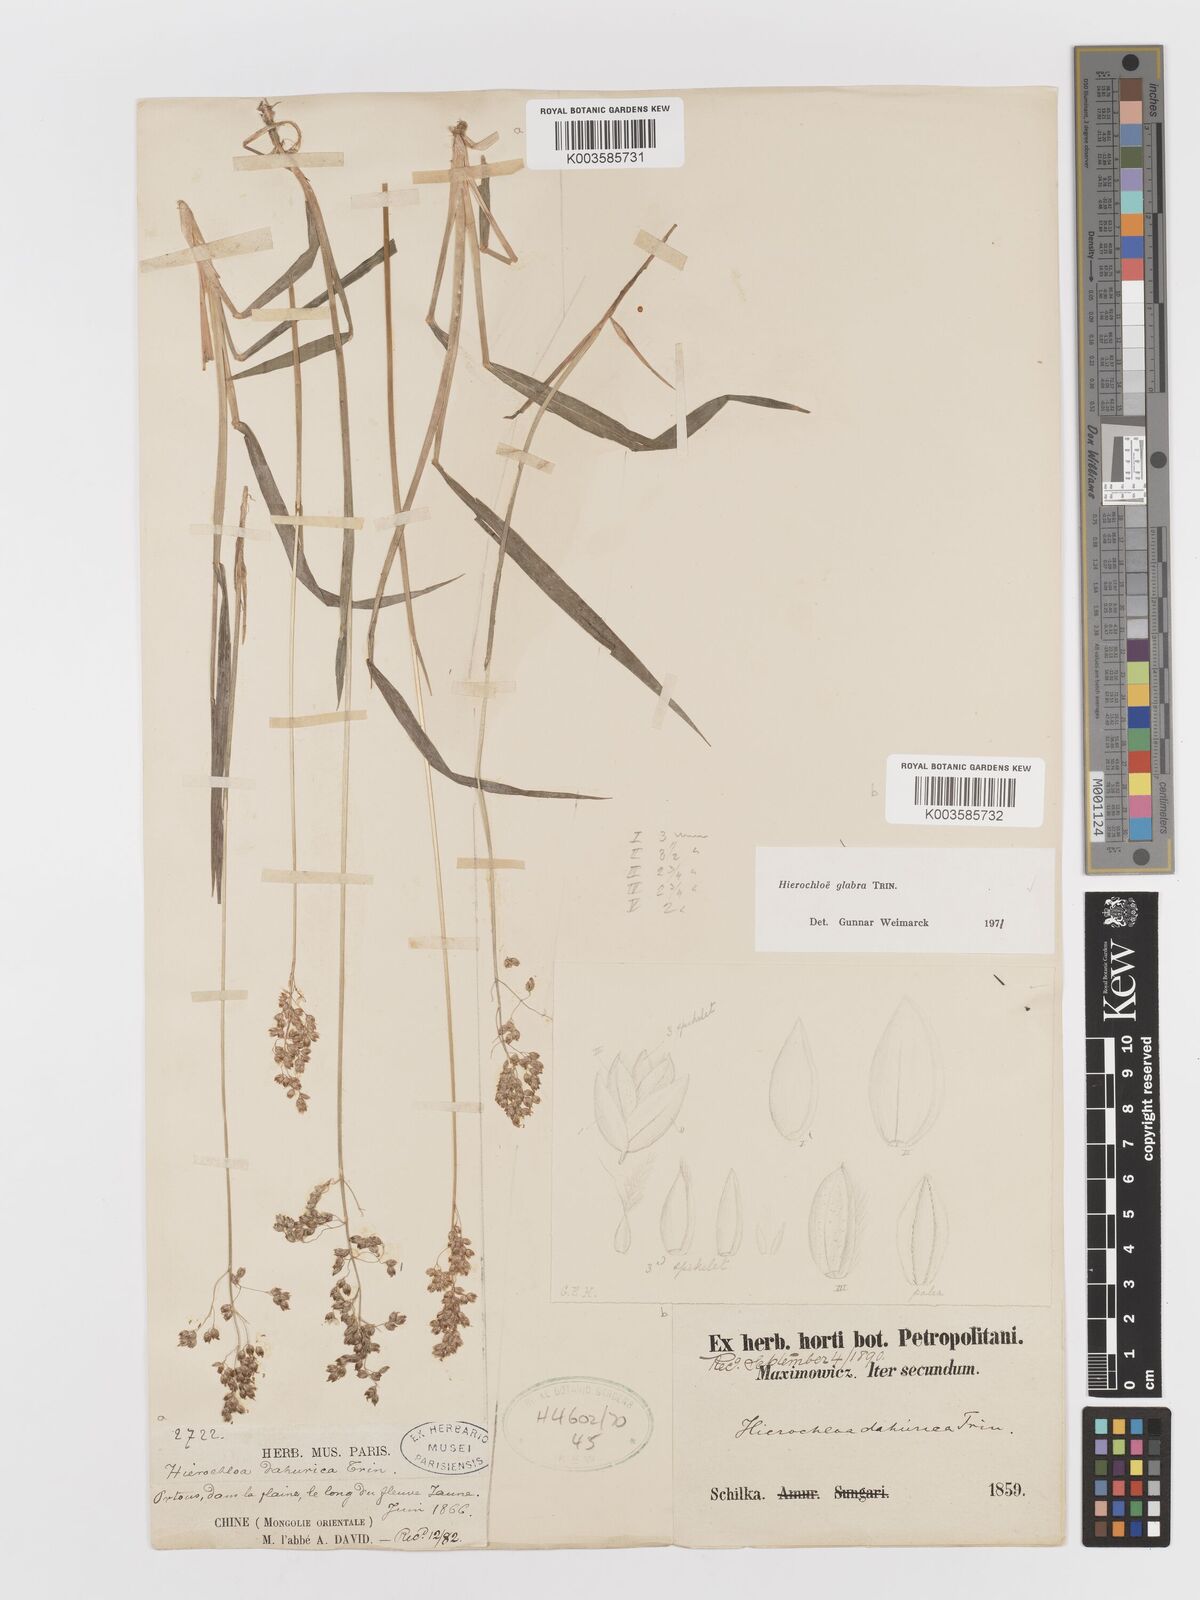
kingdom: Plantae
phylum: Tracheophyta
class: Liliopsida
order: Poales
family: Poaceae
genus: Anthoxanthum
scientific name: Anthoxanthum glabrum
